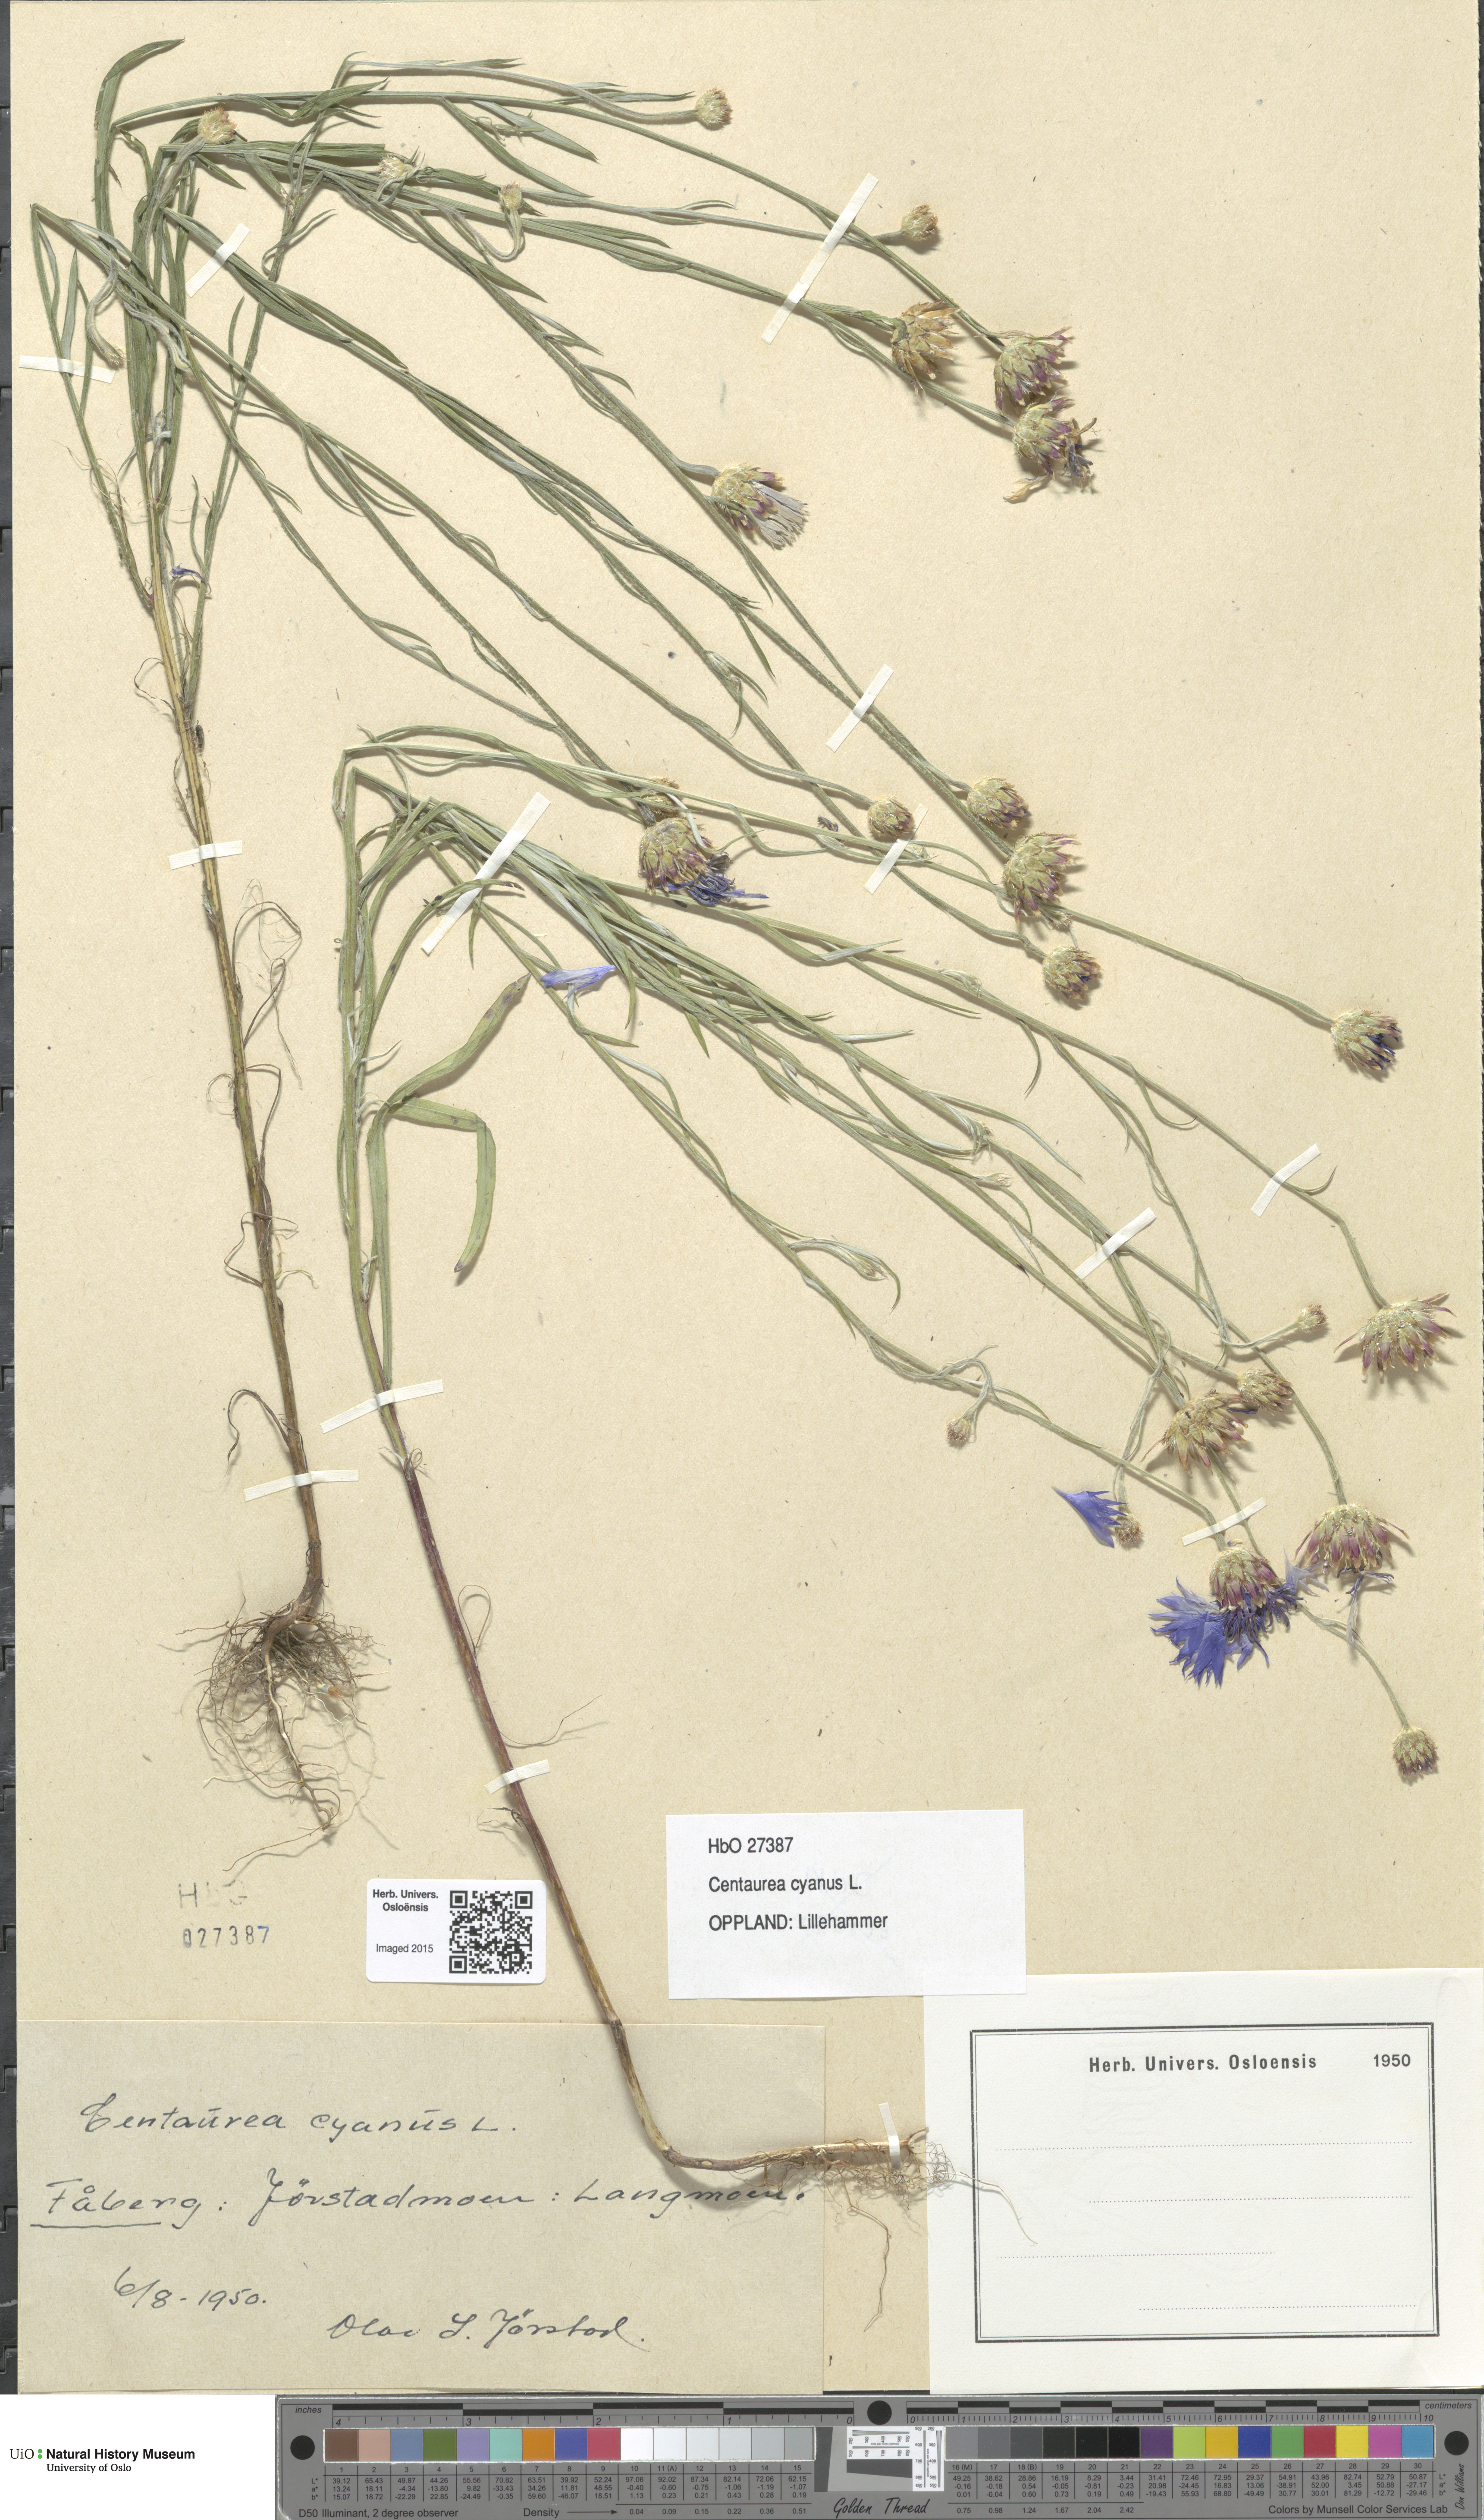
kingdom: Plantae
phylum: Tracheophyta
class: Magnoliopsida
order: Asterales
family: Asteraceae
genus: Centaurea
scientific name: Centaurea cyanus
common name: Cornflower
